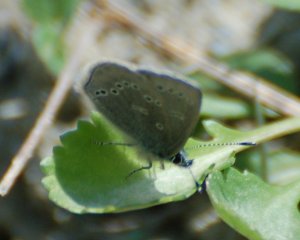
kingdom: Animalia
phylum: Arthropoda
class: Insecta
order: Lepidoptera
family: Lycaenidae
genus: Glaucopsyche
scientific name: Glaucopsyche lygdamus
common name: Silvery Blue
